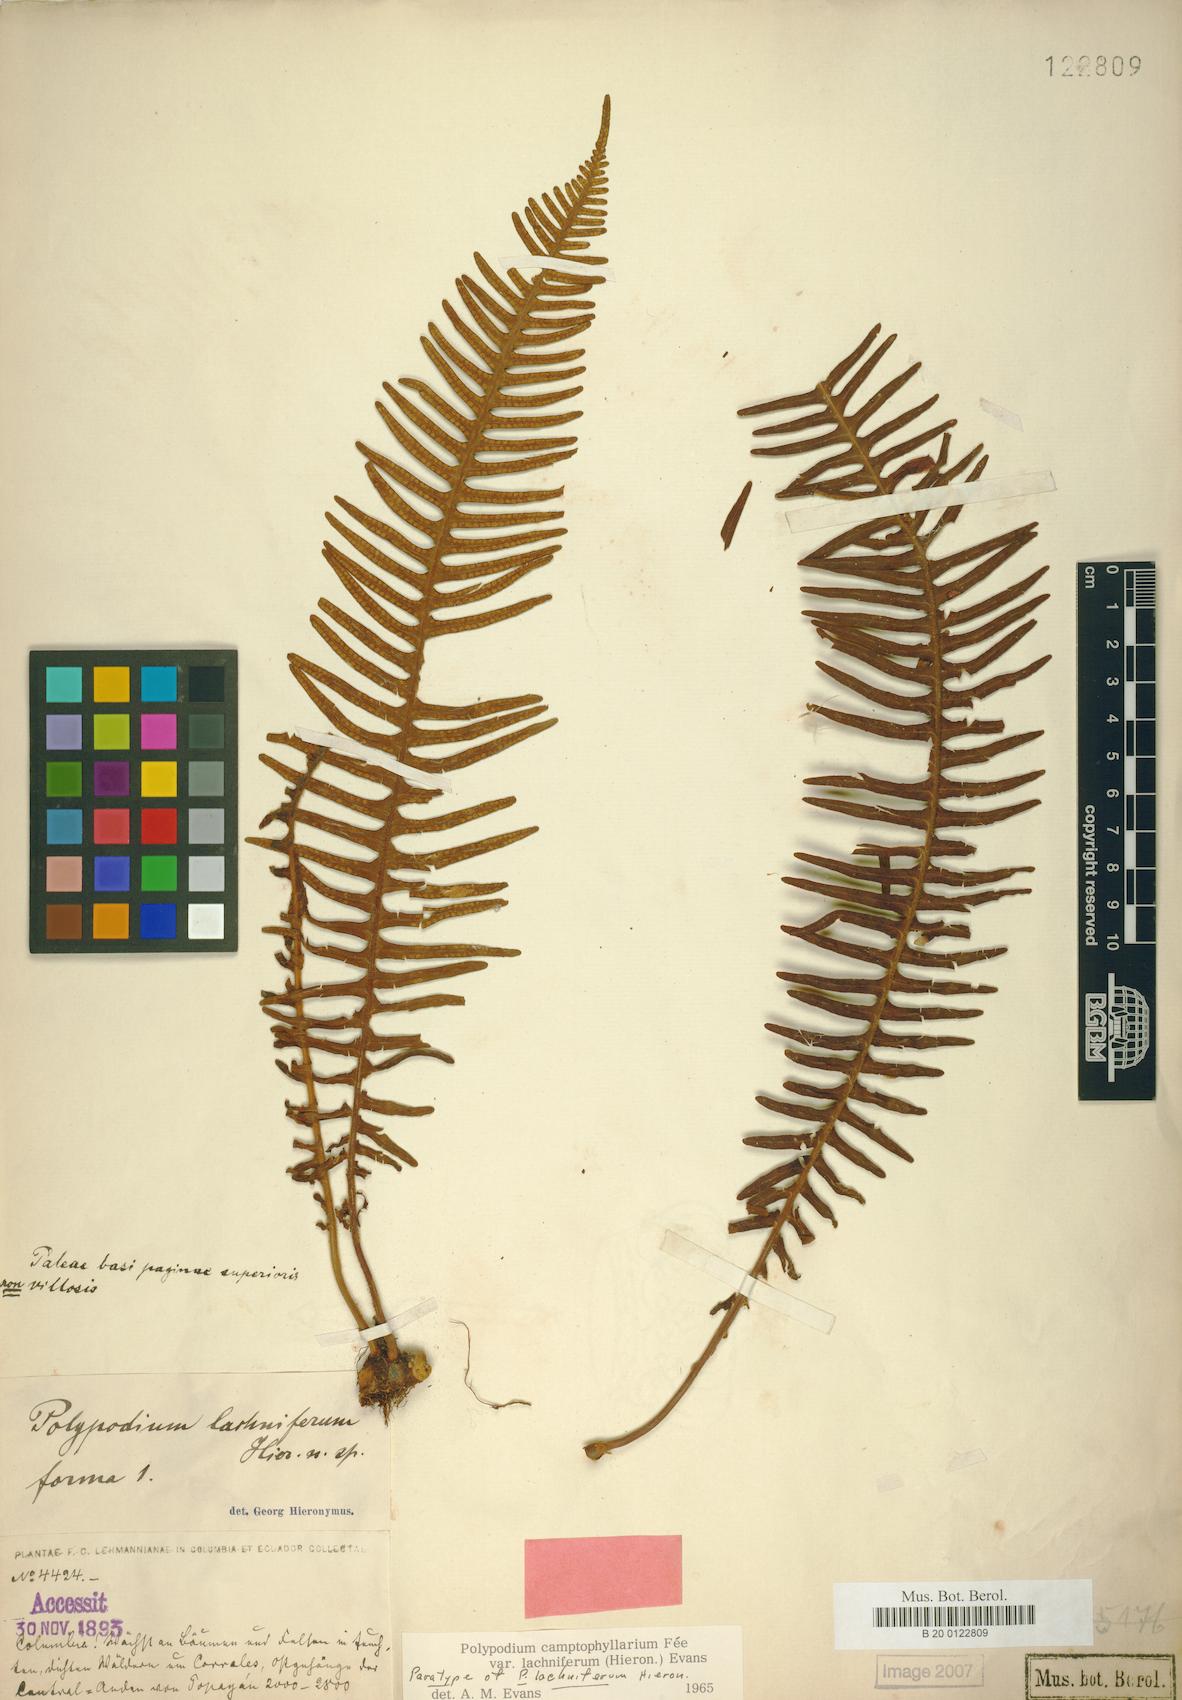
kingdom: Plantae
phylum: Tracheophyta
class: Polypodiopsida
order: Polypodiales
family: Polypodiaceae
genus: Pecluma
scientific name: Pecluma camptophyllaria
